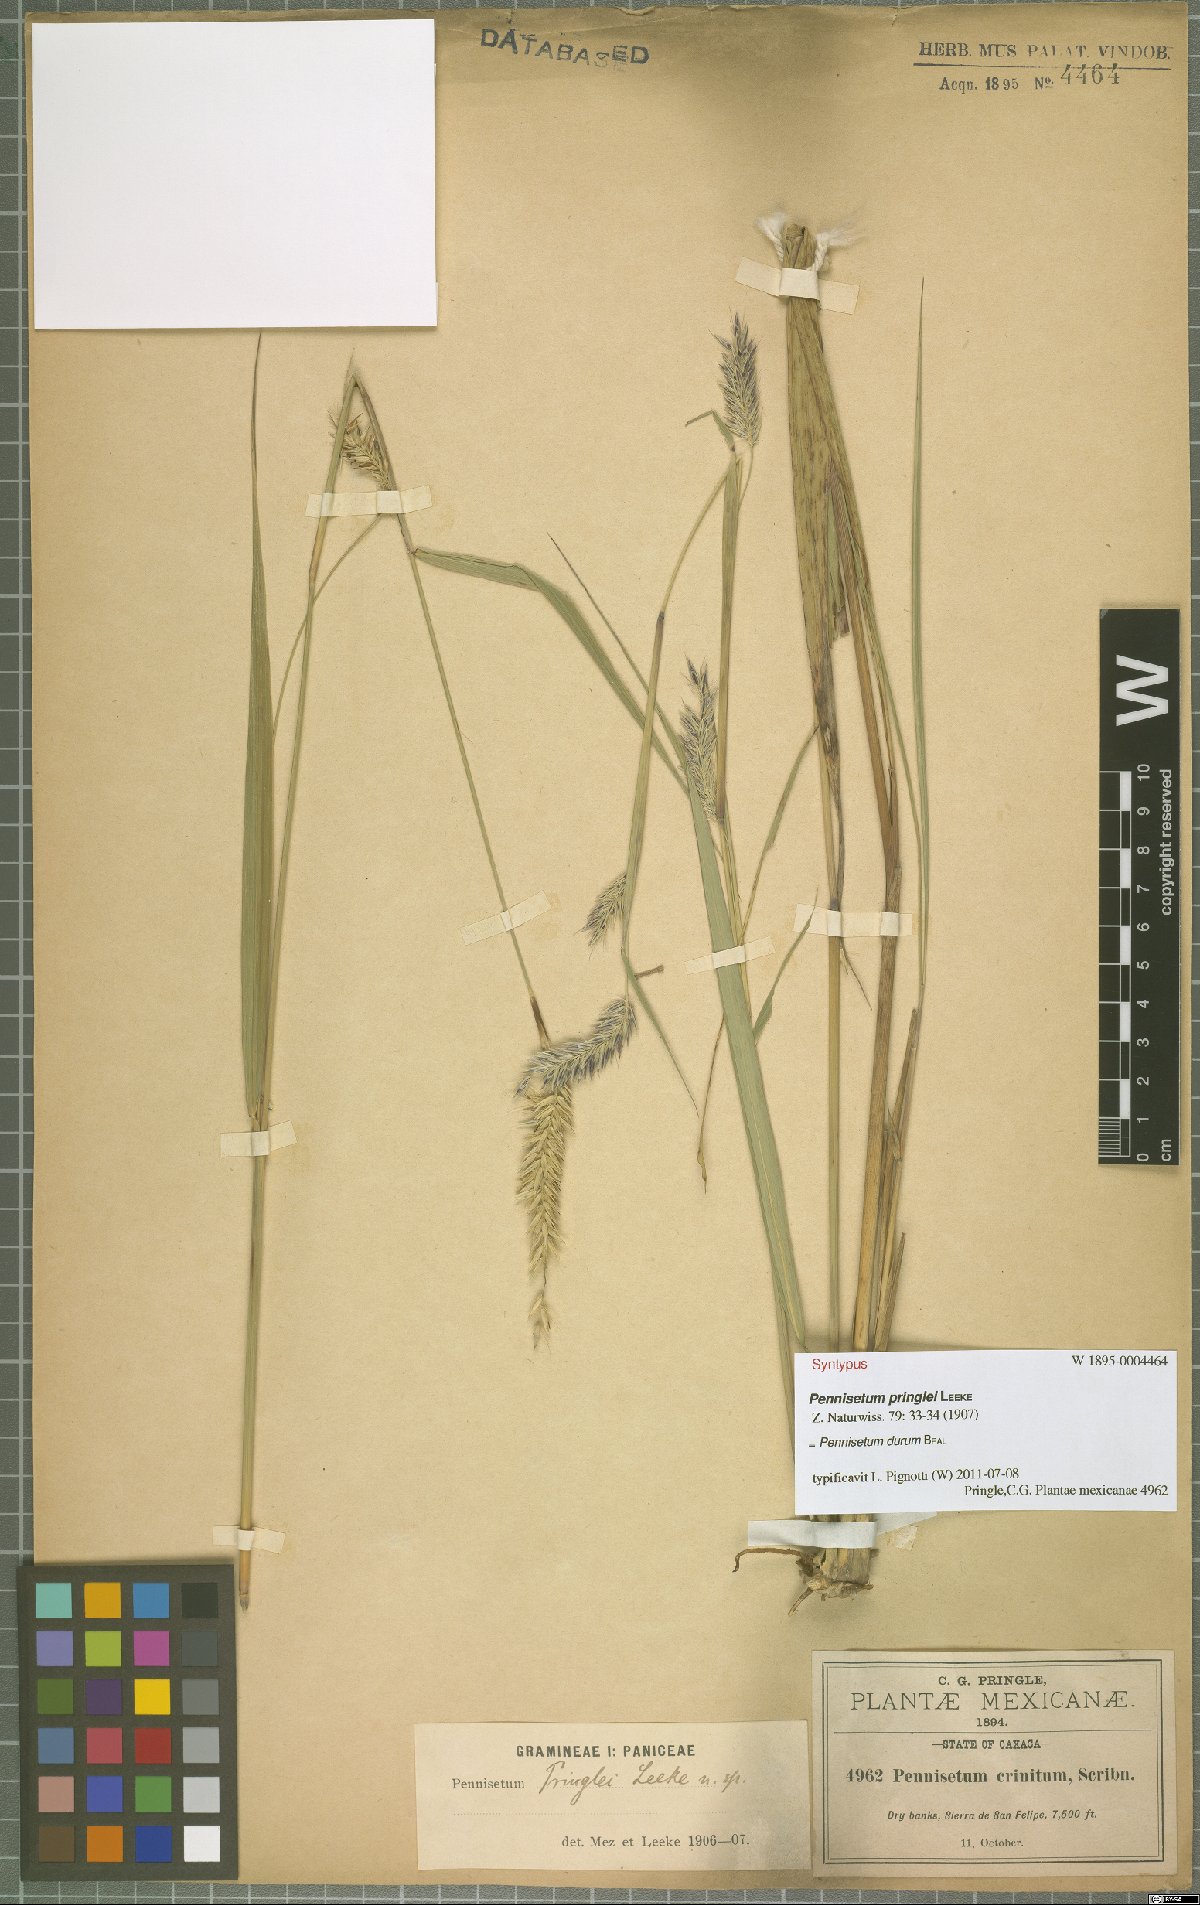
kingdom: Plantae
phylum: Tracheophyta
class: Liliopsida
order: Poales
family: Poaceae
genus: Cenchrus
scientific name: Cenchrus durus
